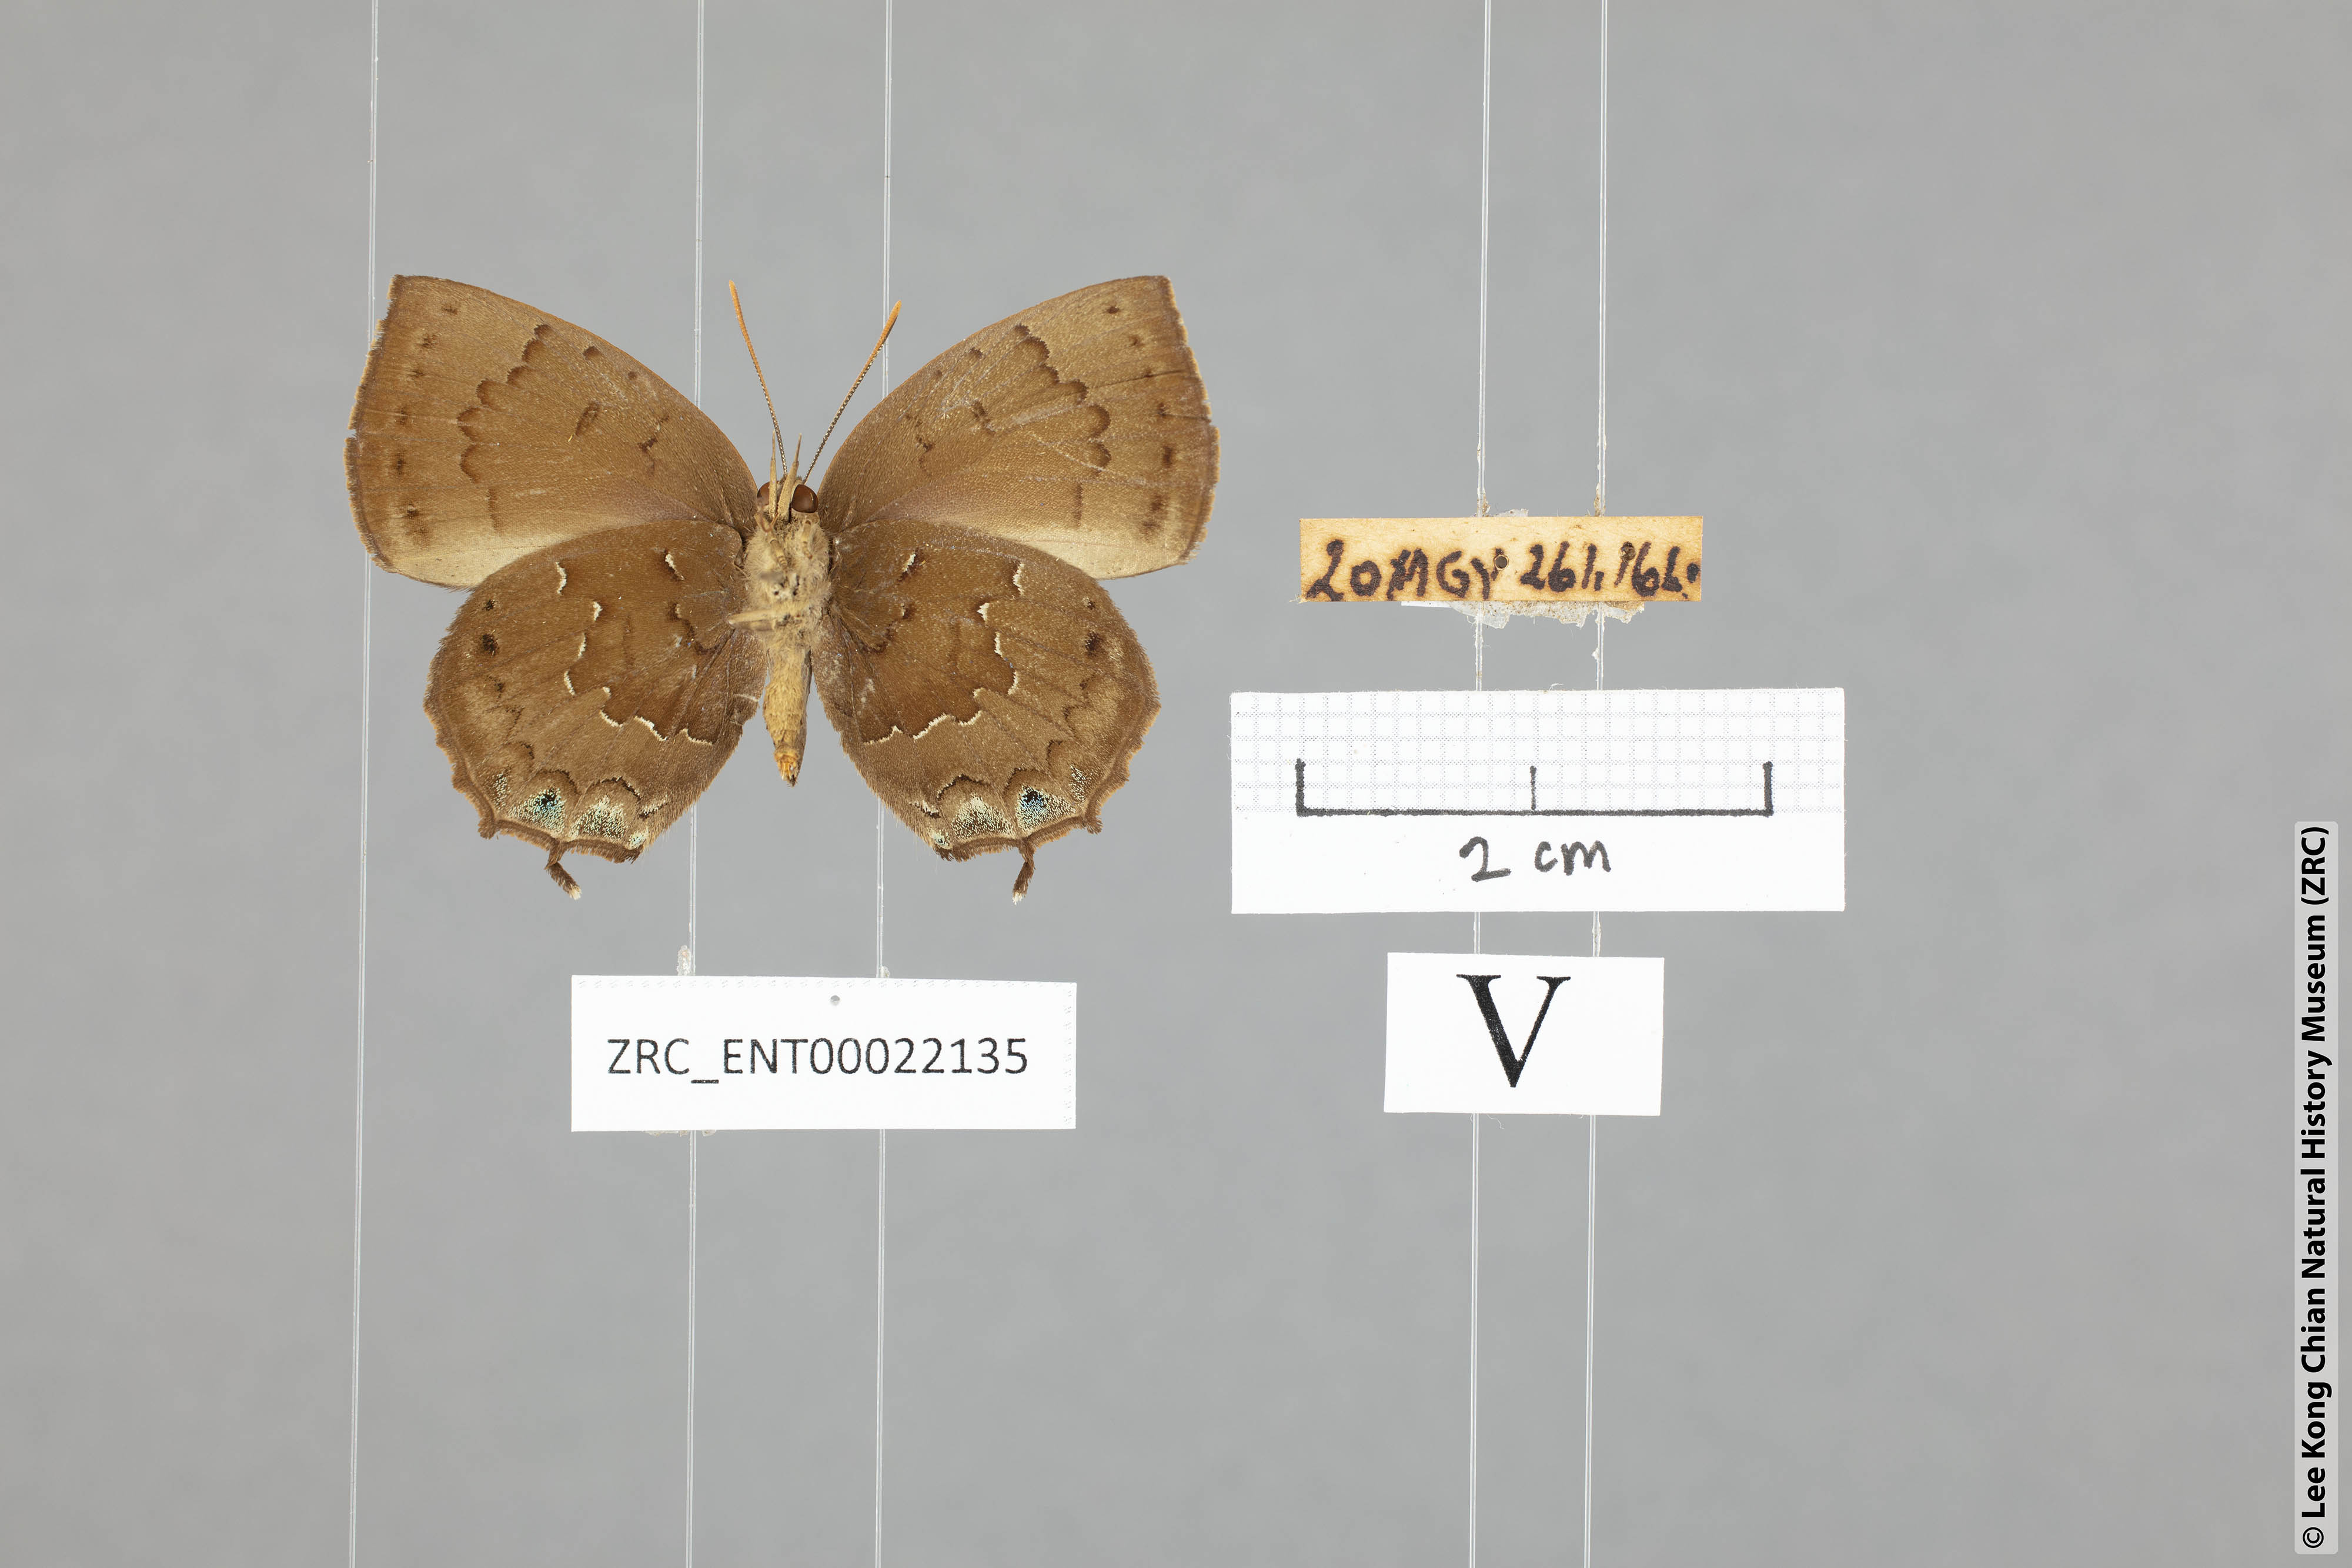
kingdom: Animalia
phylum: Arthropoda
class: Insecta
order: Lepidoptera
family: Lycaenidae
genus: Surendra
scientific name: Surendra vivarna
